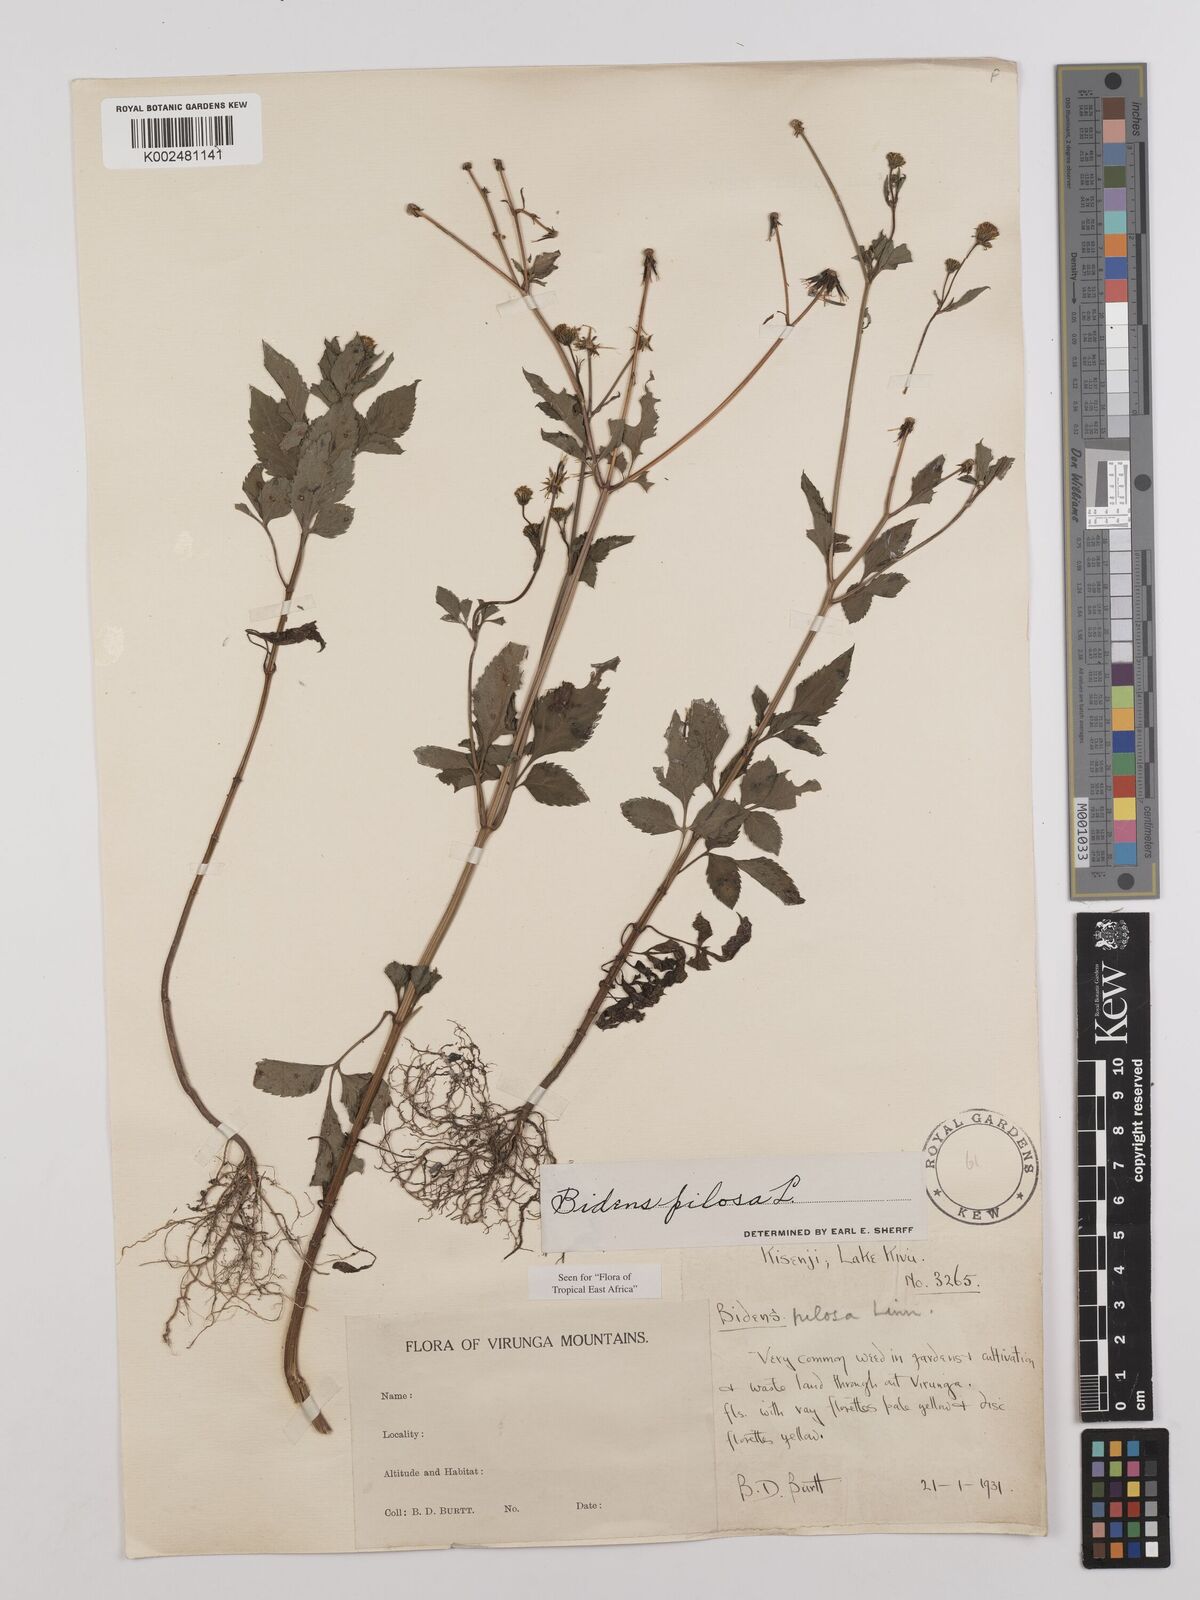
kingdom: Plantae
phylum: Tracheophyta
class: Magnoliopsida
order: Asterales
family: Asteraceae
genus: Bidens
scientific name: Bidens pilosa
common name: Black-jack
